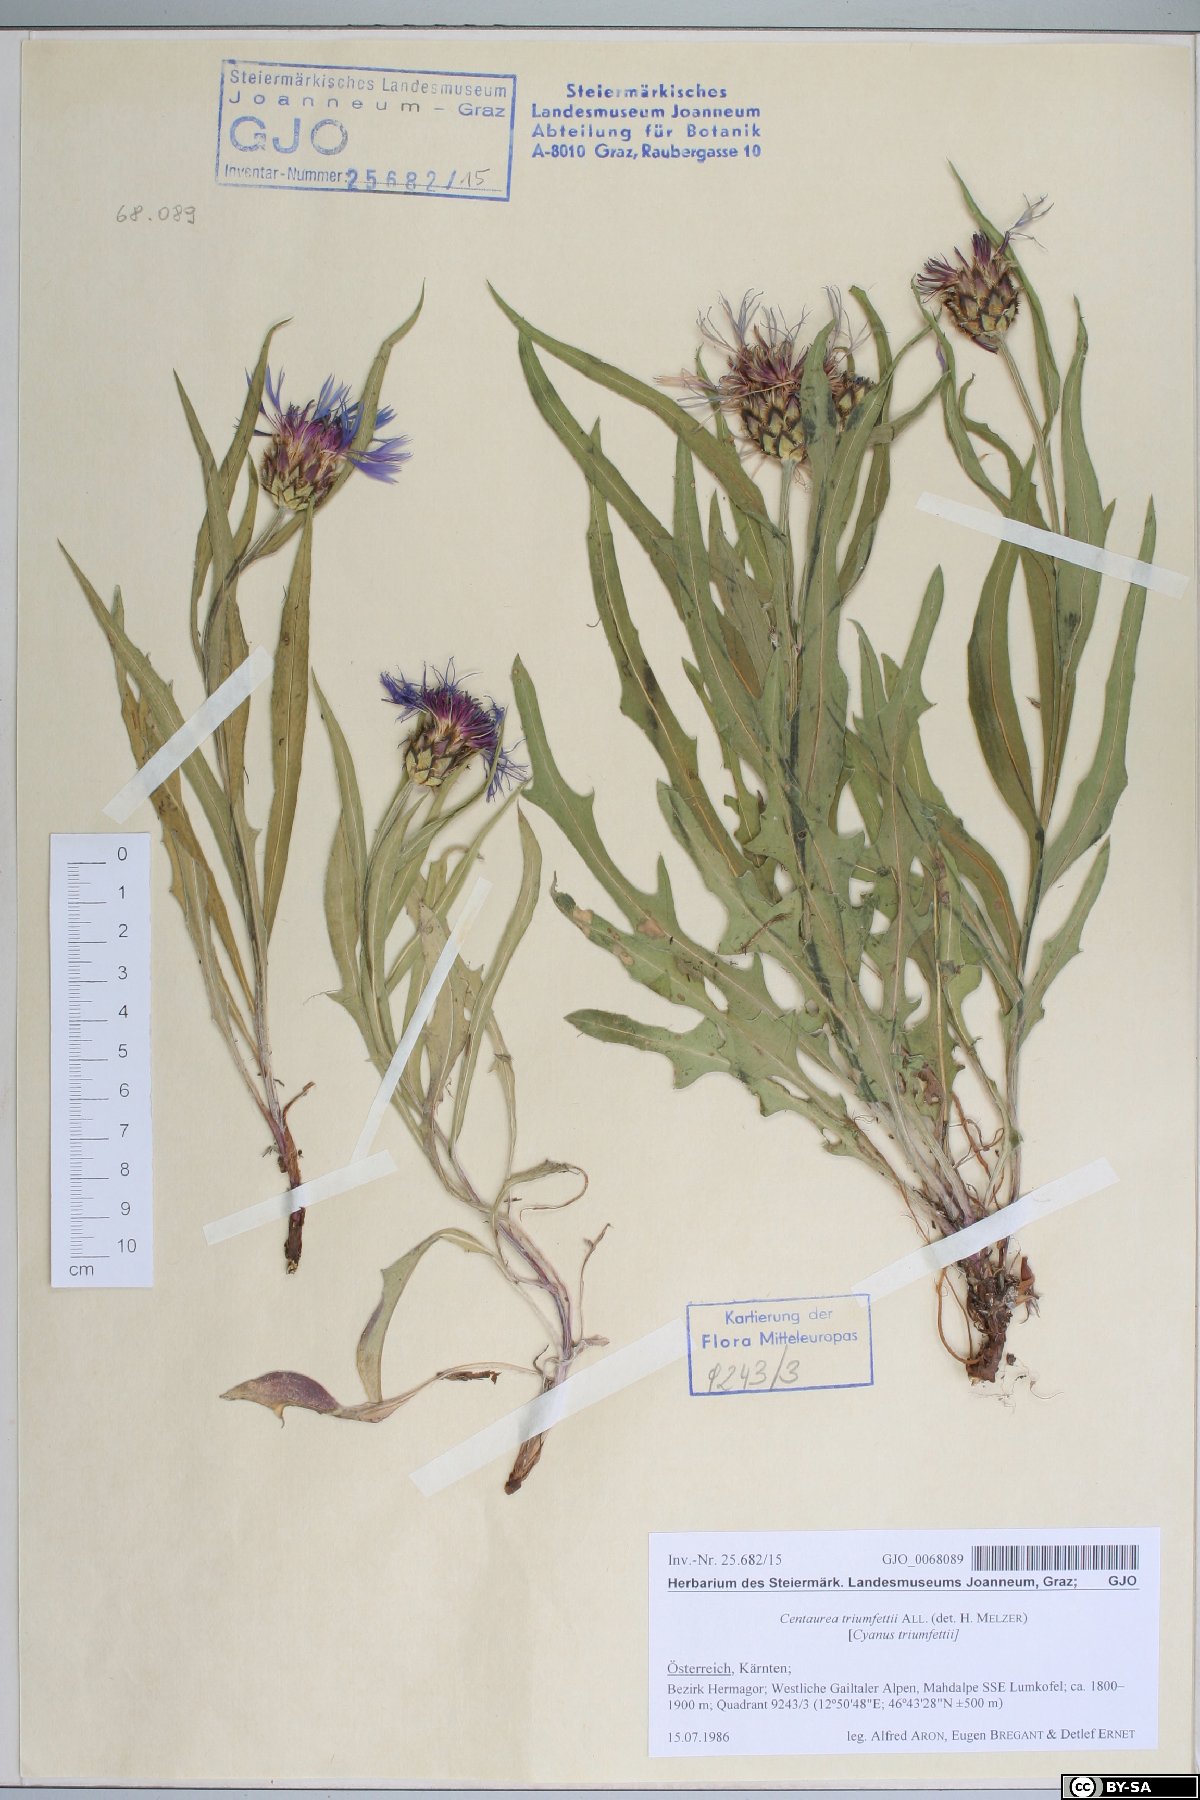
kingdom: Plantae
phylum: Tracheophyta
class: Magnoliopsida
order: Asterales
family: Asteraceae
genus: Centaurea
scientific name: Centaurea triumfettii
